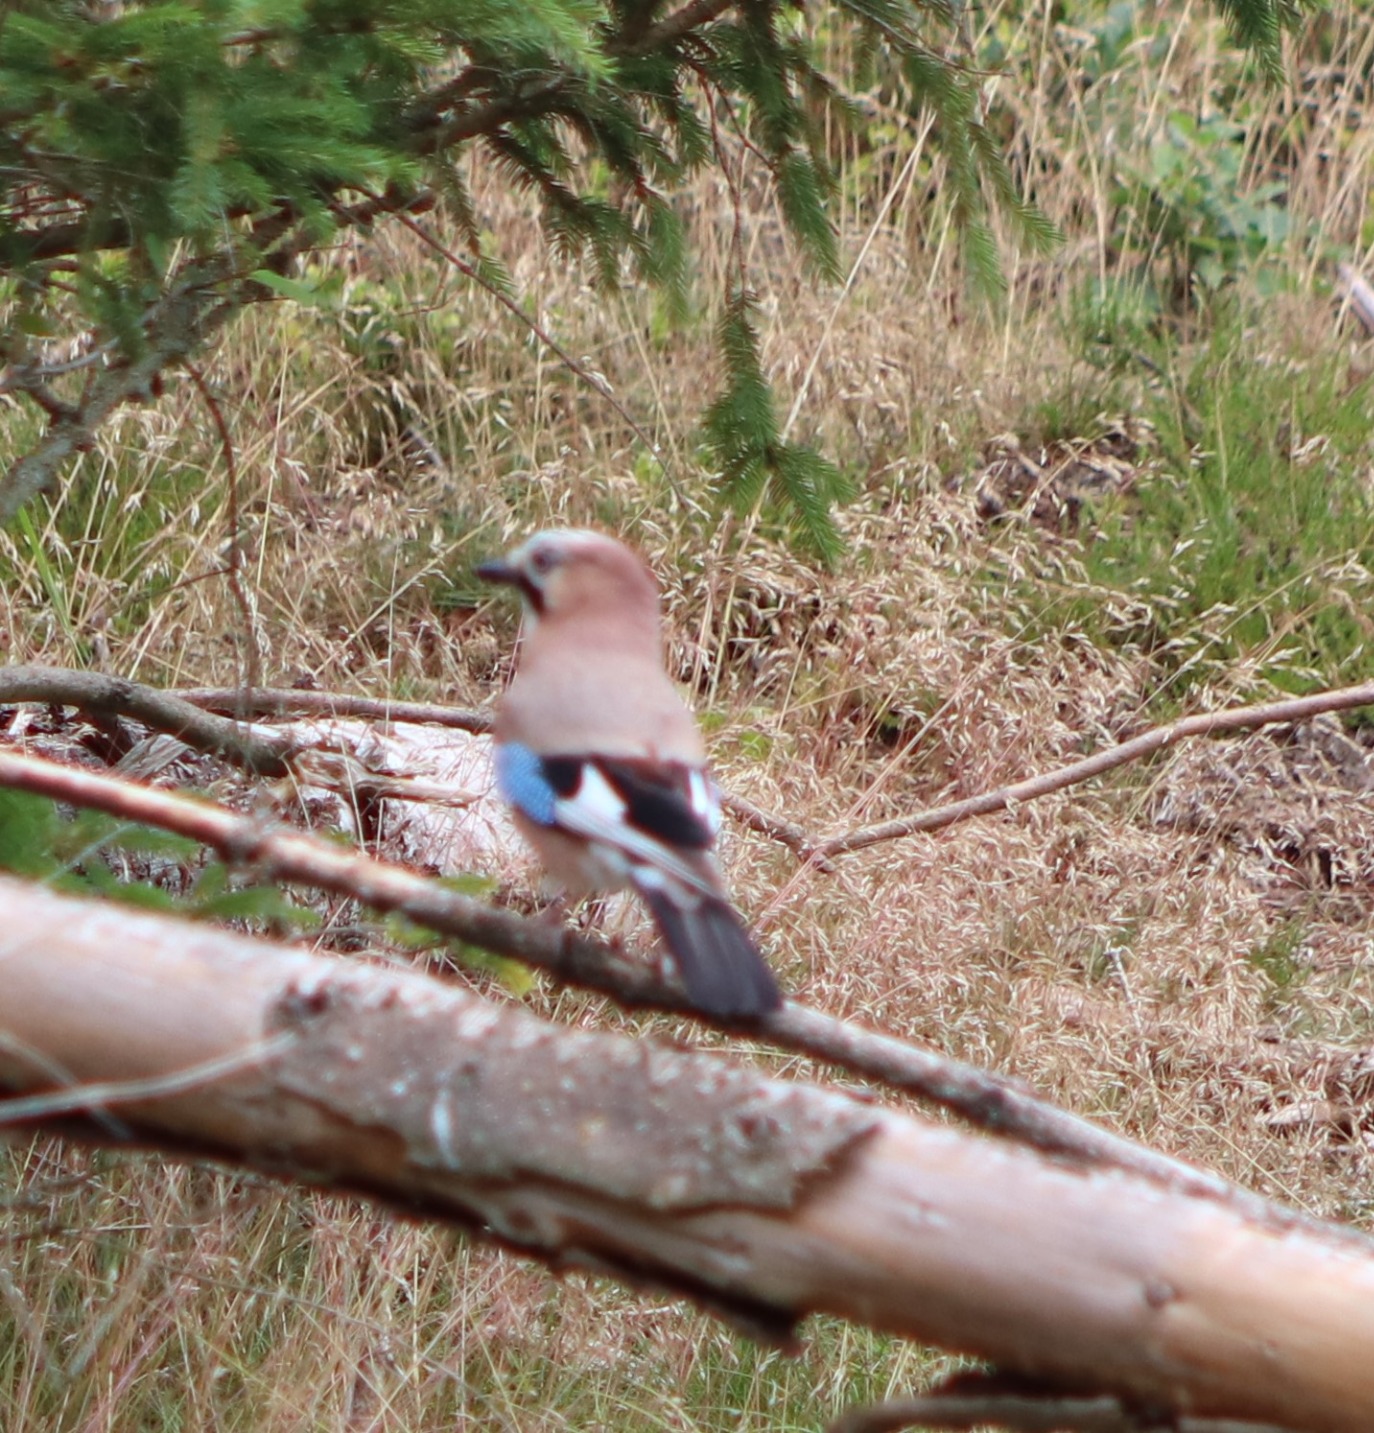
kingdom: Animalia
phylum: Chordata
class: Aves
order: Passeriformes
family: Corvidae
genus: Garrulus
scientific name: Garrulus glandarius
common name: Skovskade
